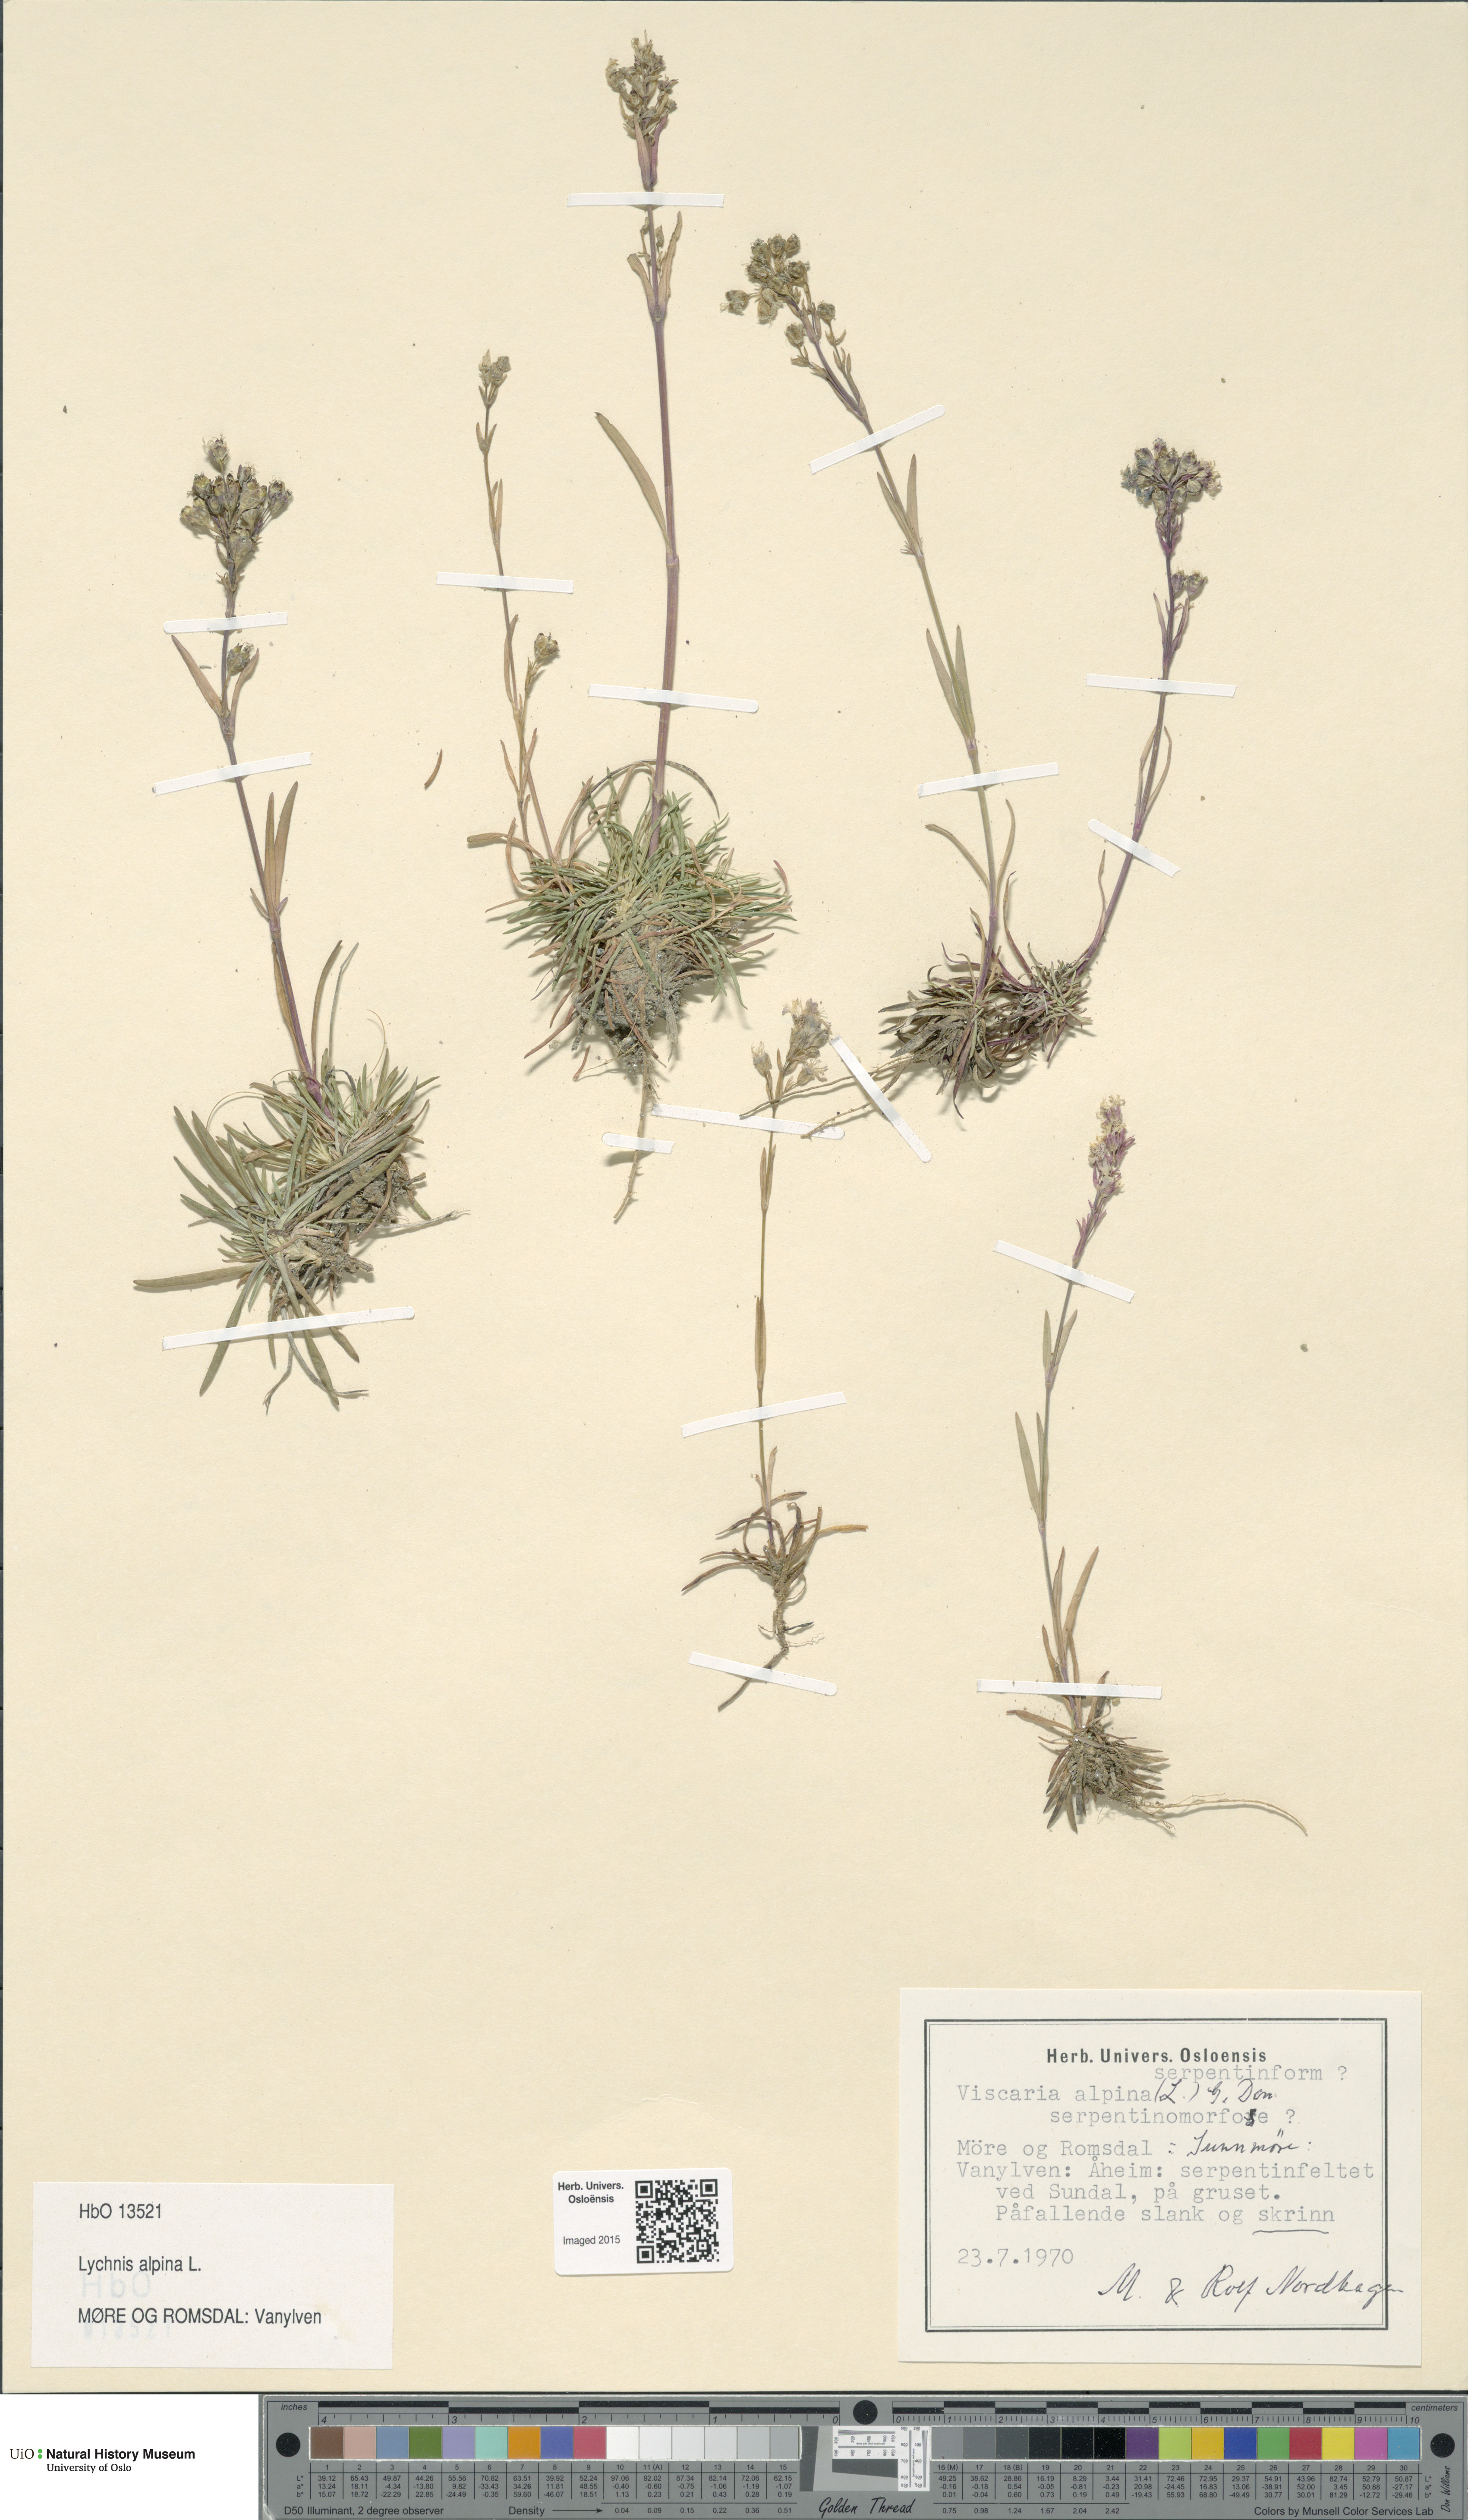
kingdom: Plantae
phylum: Tracheophyta
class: Magnoliopsida
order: Caryophyllales
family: Caryophyllaceae
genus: Viscaria
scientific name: Viscaria alpina
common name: Alpine campion
